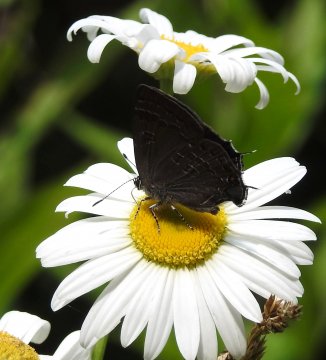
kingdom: Animalia
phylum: Arthropoda
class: Insecta
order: Lepidoptera
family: Lycaenidae
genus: Strymon
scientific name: Strymon caryaevorus
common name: Hickory Hairstreak
